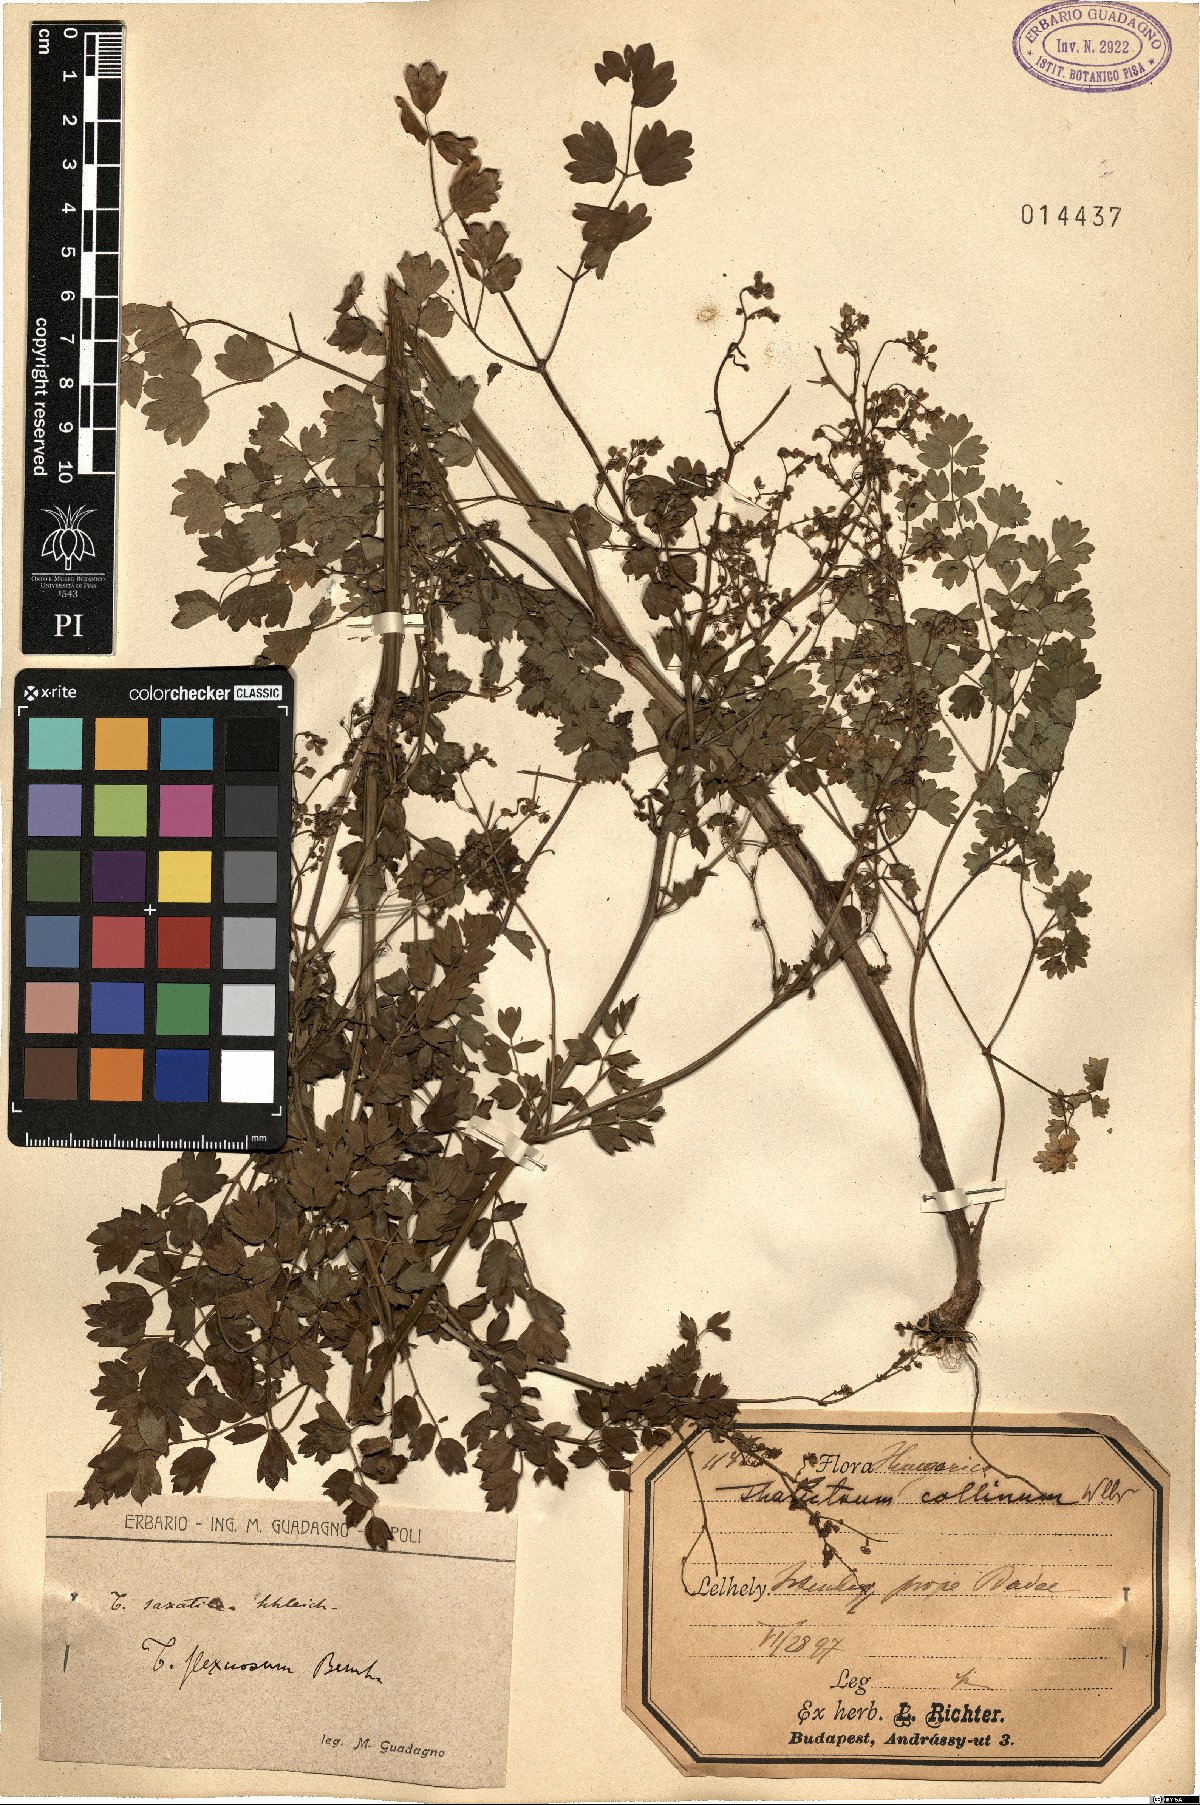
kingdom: Plantae
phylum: Tracheophyta
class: Magnoliopsida
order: Ranunculales
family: Ranunculaceae
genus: Thalictrum
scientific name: Thalictrum minus
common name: Lesser meadow-rue
